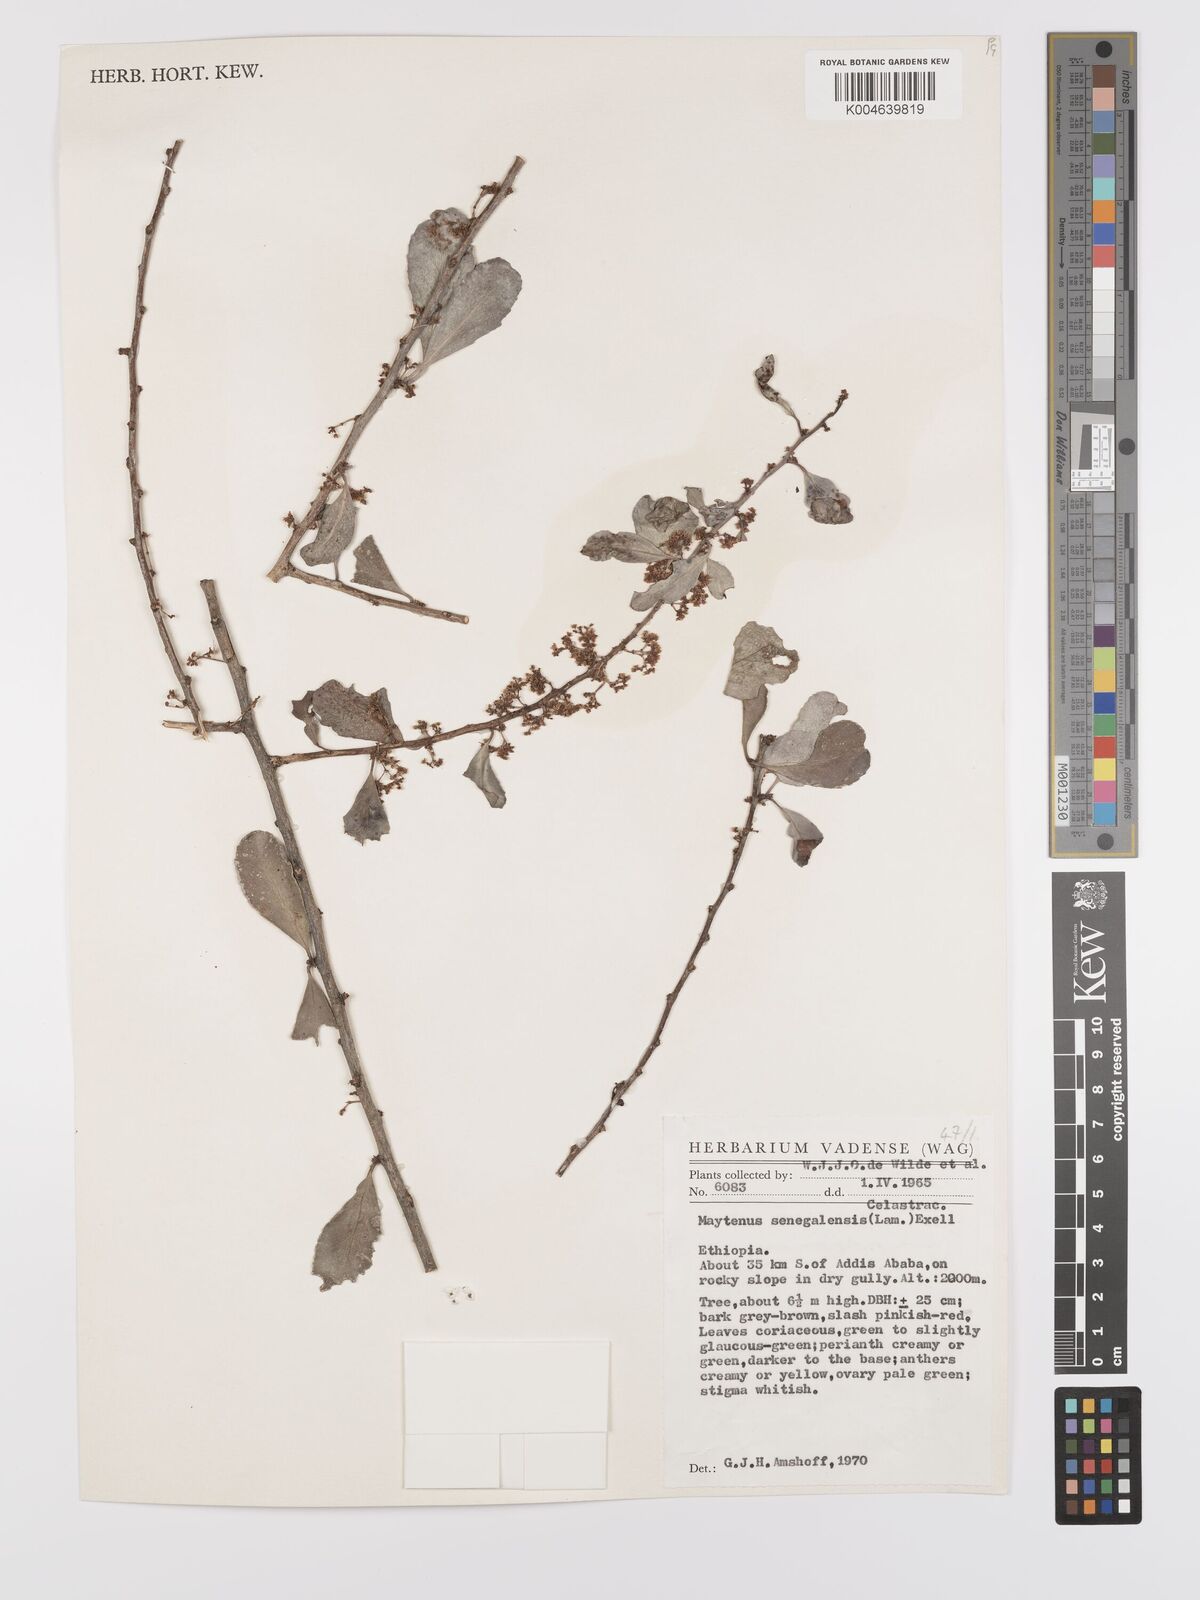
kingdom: Plantae
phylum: Tracheophyta
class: Magnoliopsida
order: Celastrales
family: Celastraceae
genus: Gymnosporia
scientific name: Gymnosporia senegalensis
